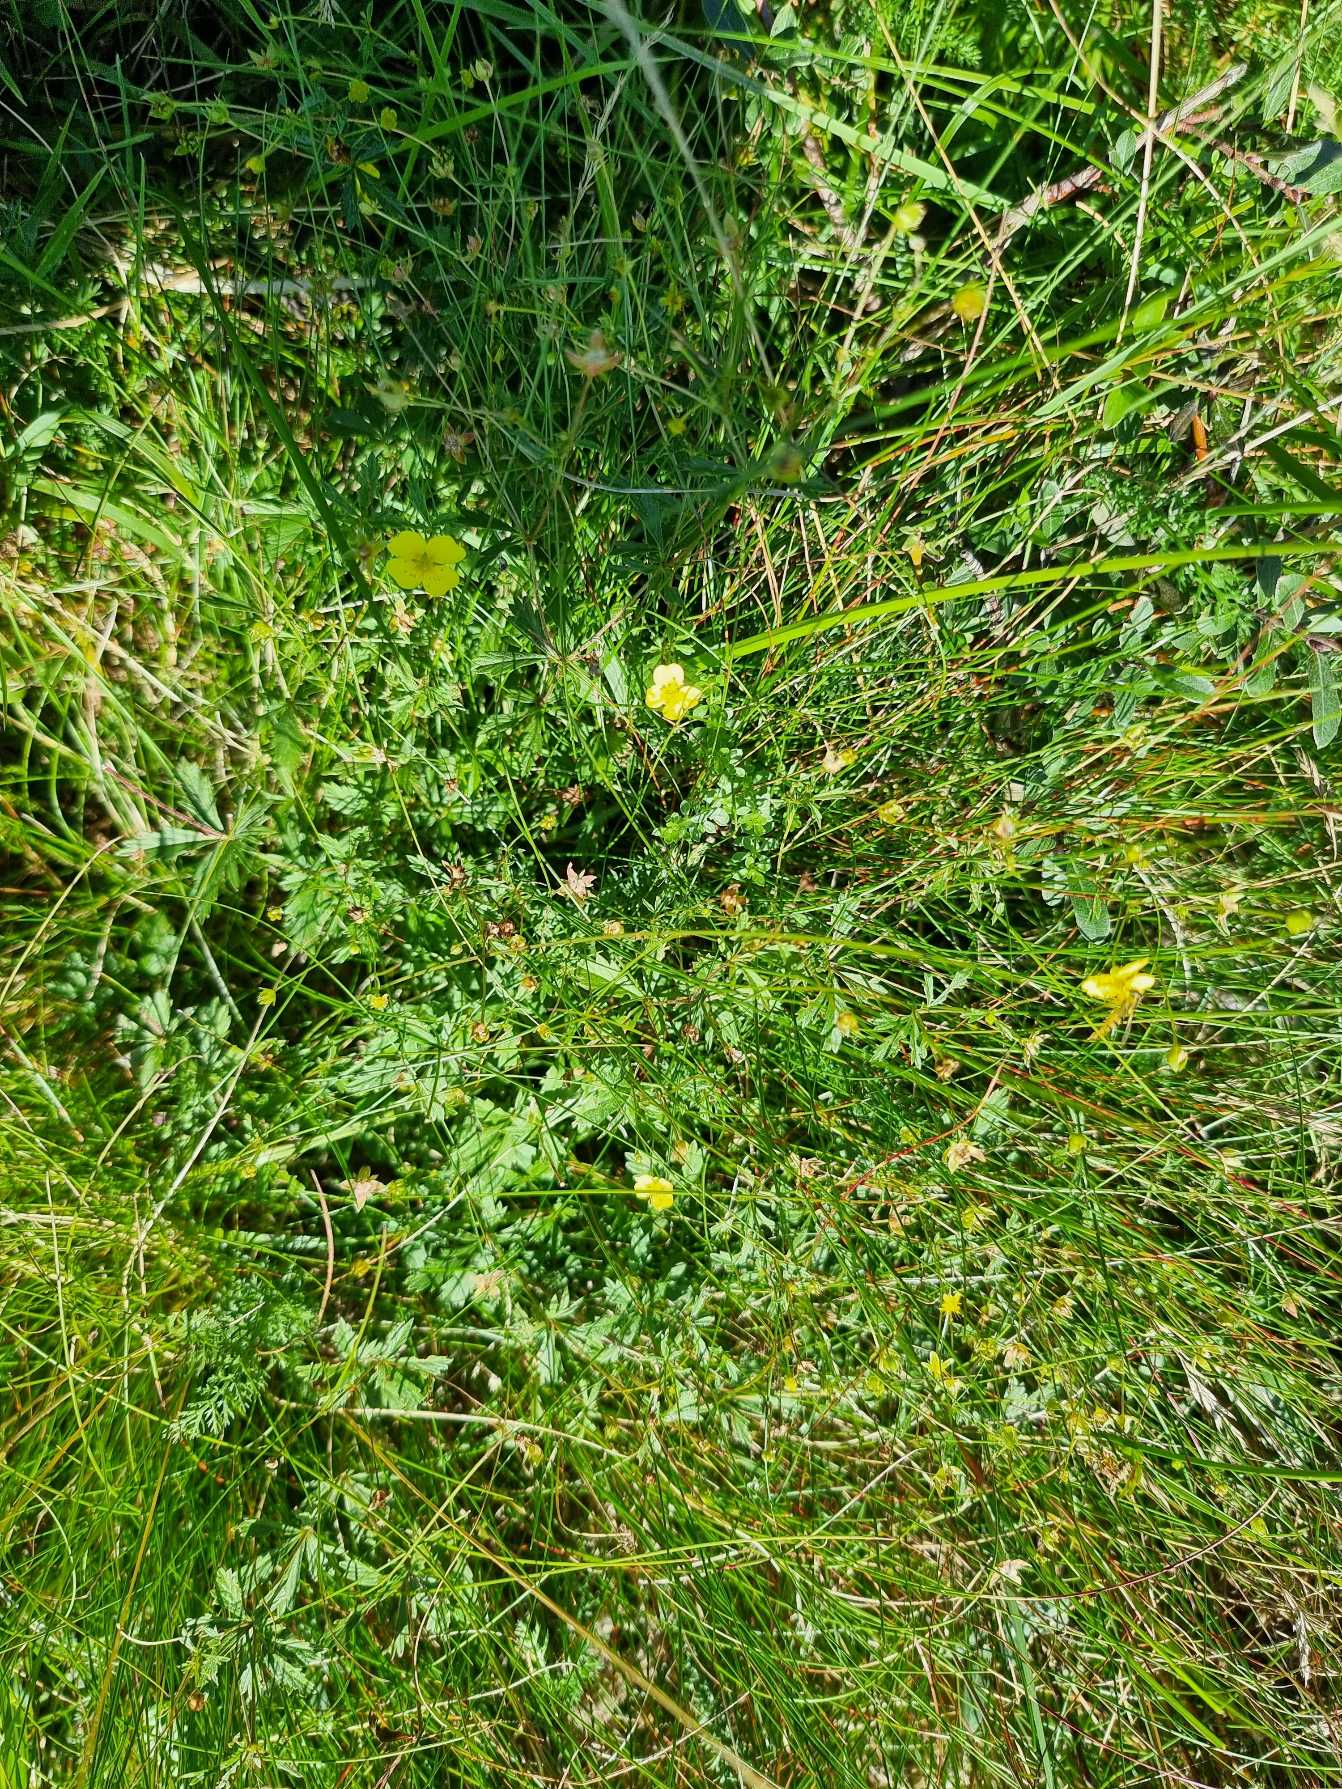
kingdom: Plantae
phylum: Tracheophyta
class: Magnoliopsida
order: Rosales
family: Rosaceae
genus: Potentilla
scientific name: Potentilla erecta
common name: Tormentil
